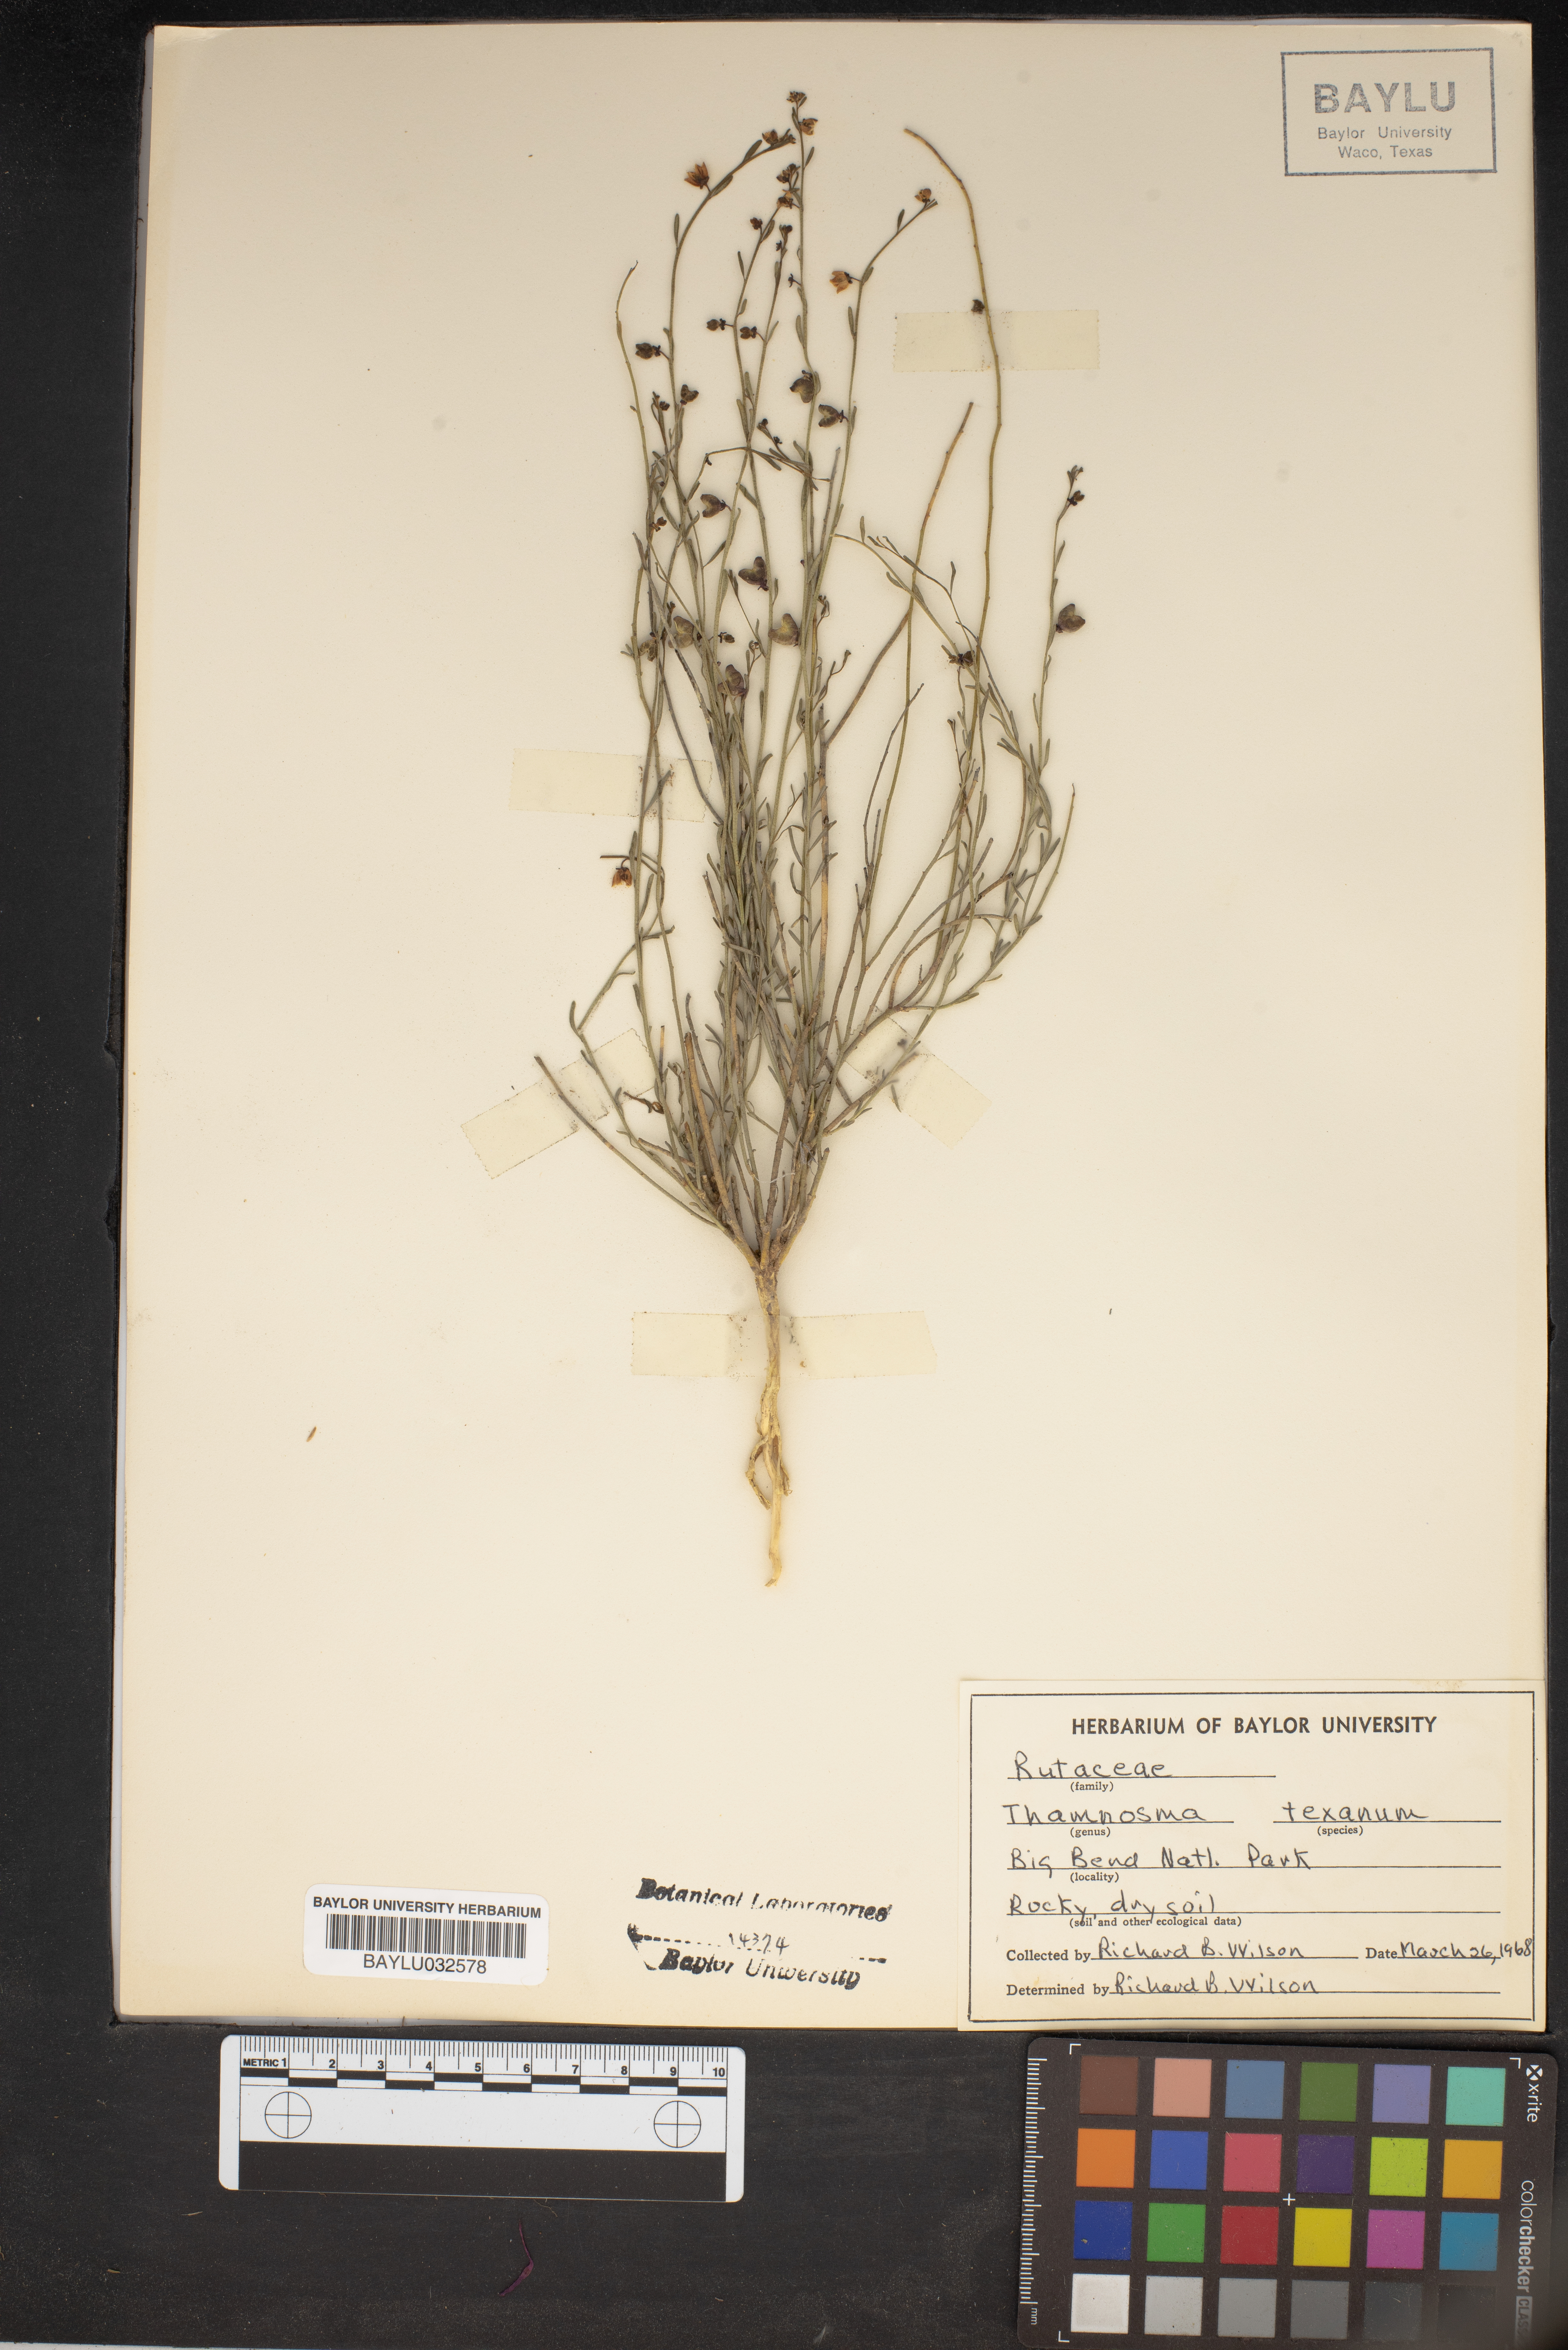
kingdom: Plantae
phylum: Tracheophyta
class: Magnoliopsida
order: Sapindales
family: Rutaceae
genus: Thamnosma
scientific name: Thamnosma texana
